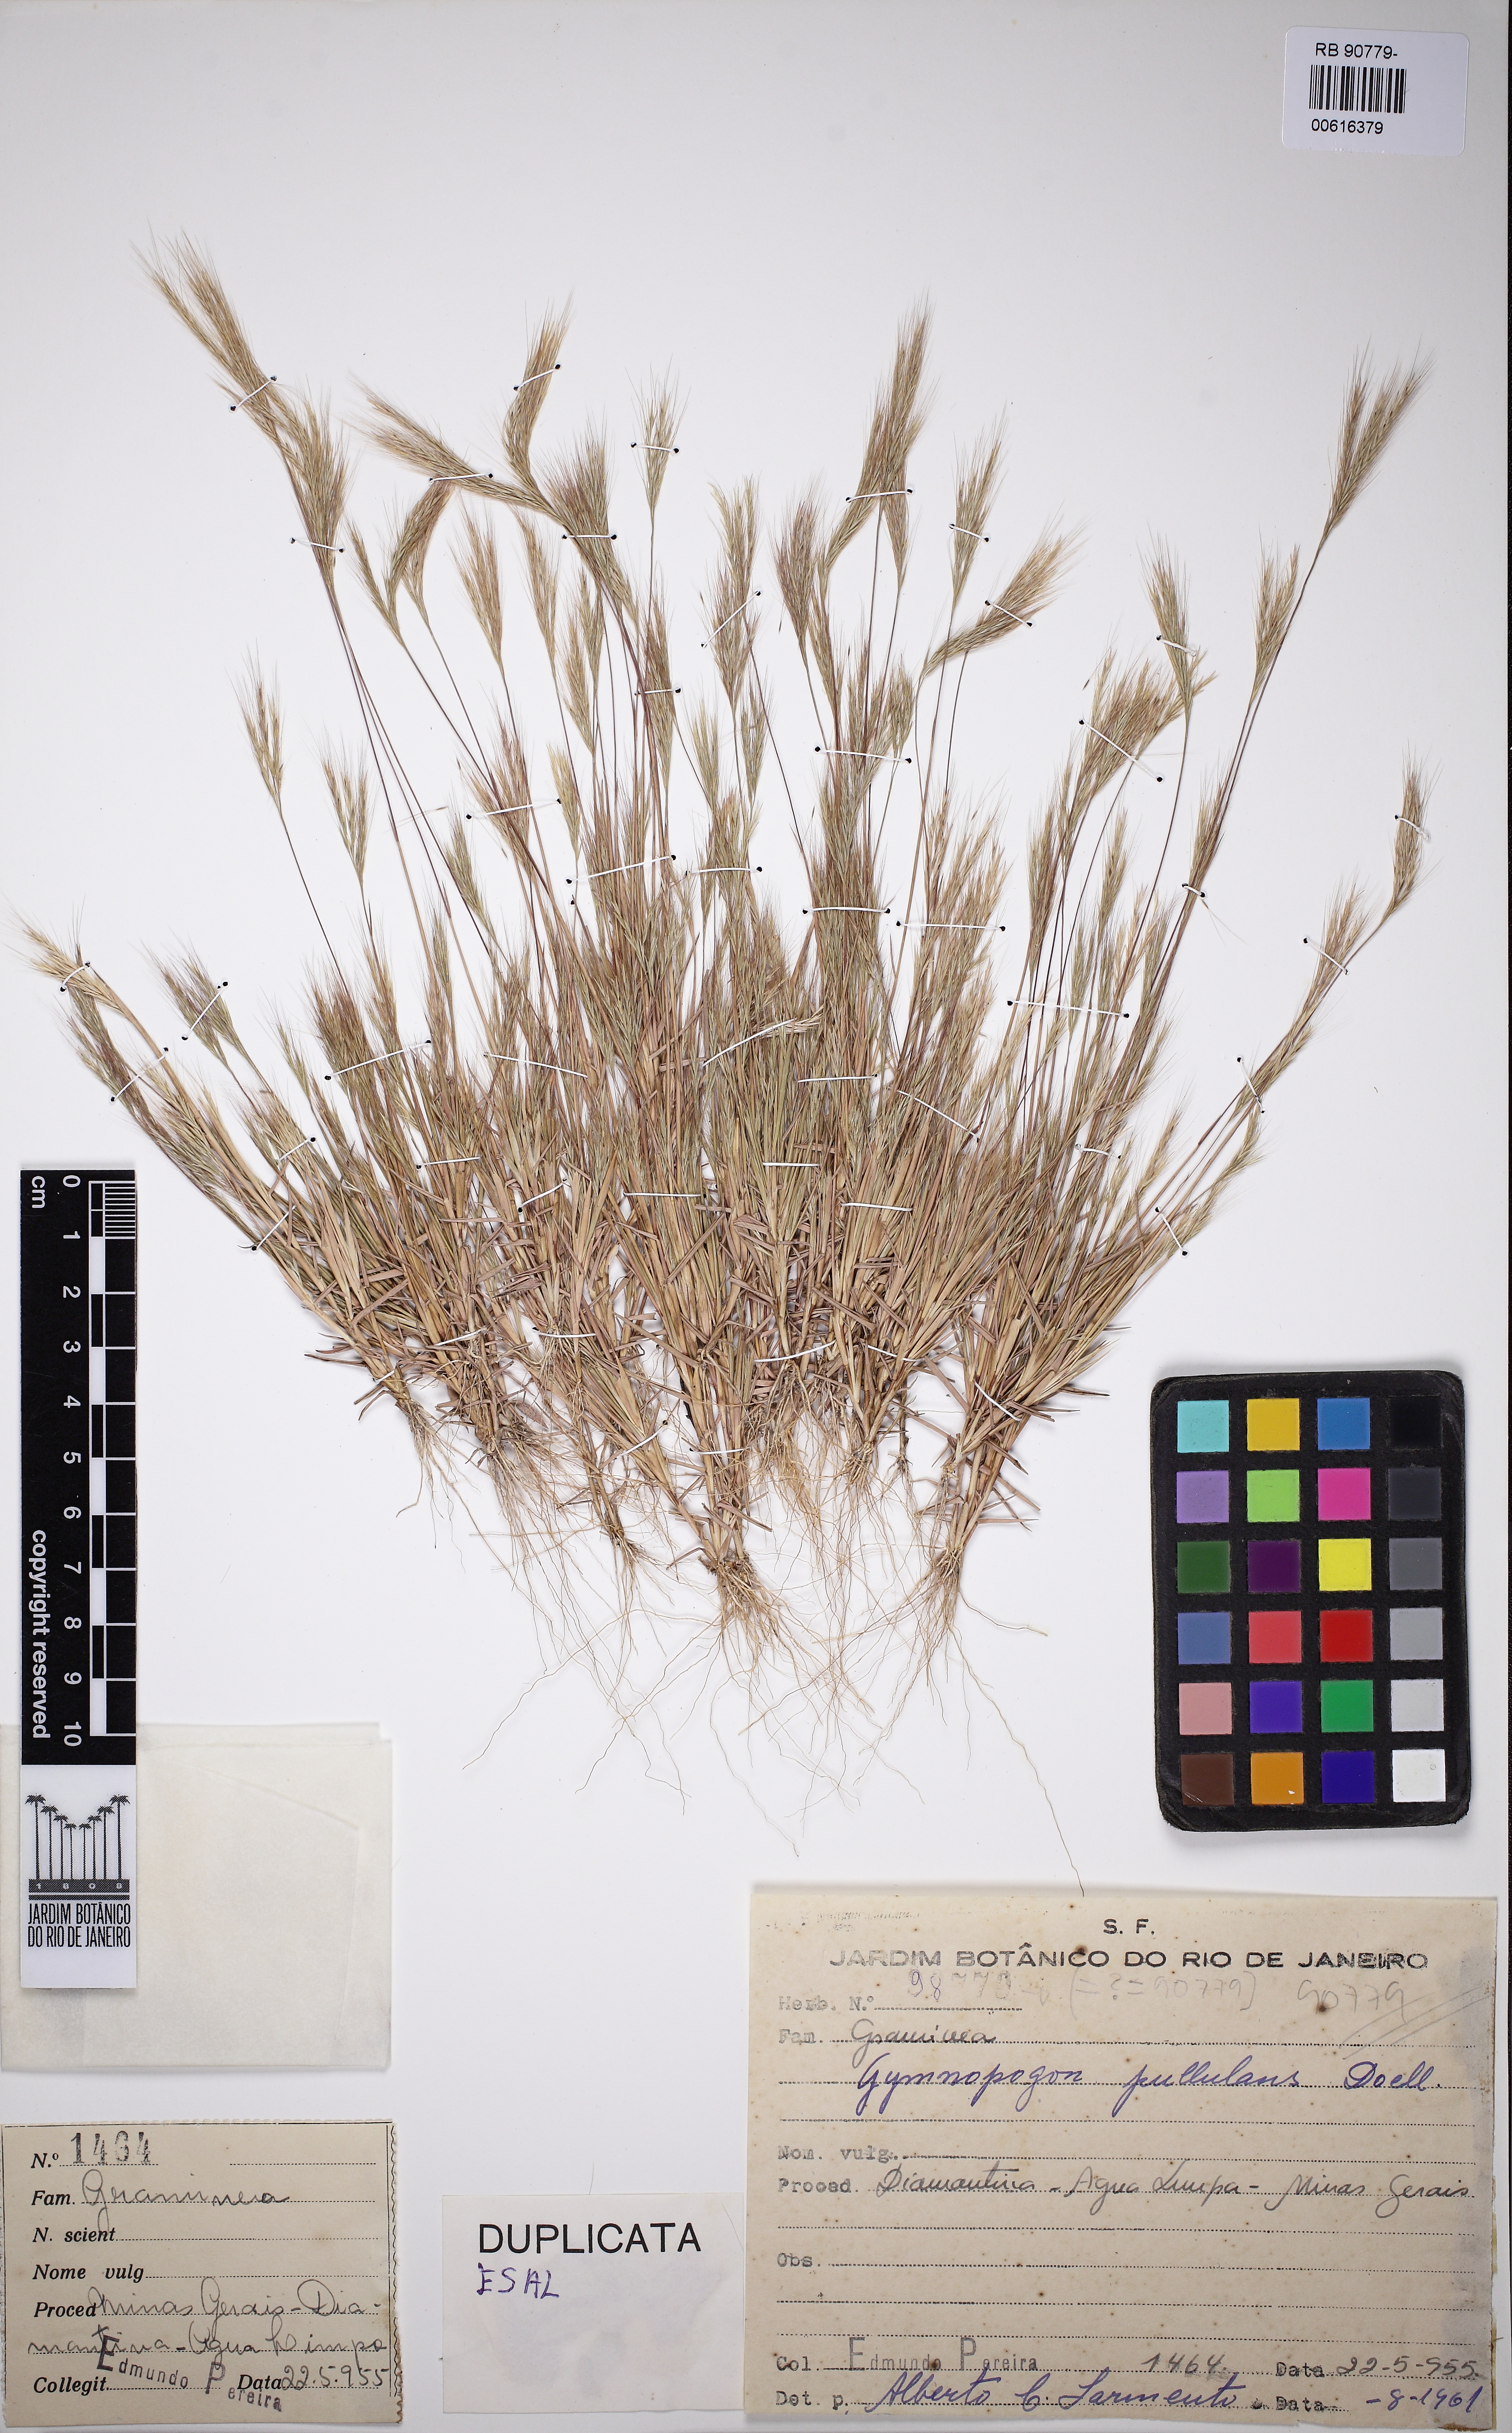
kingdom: Plantae
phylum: Tracheophyta
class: Liliopsida
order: Poales
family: Poaceae
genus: Gymnopogon
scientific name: Gymnopogon foliosus
